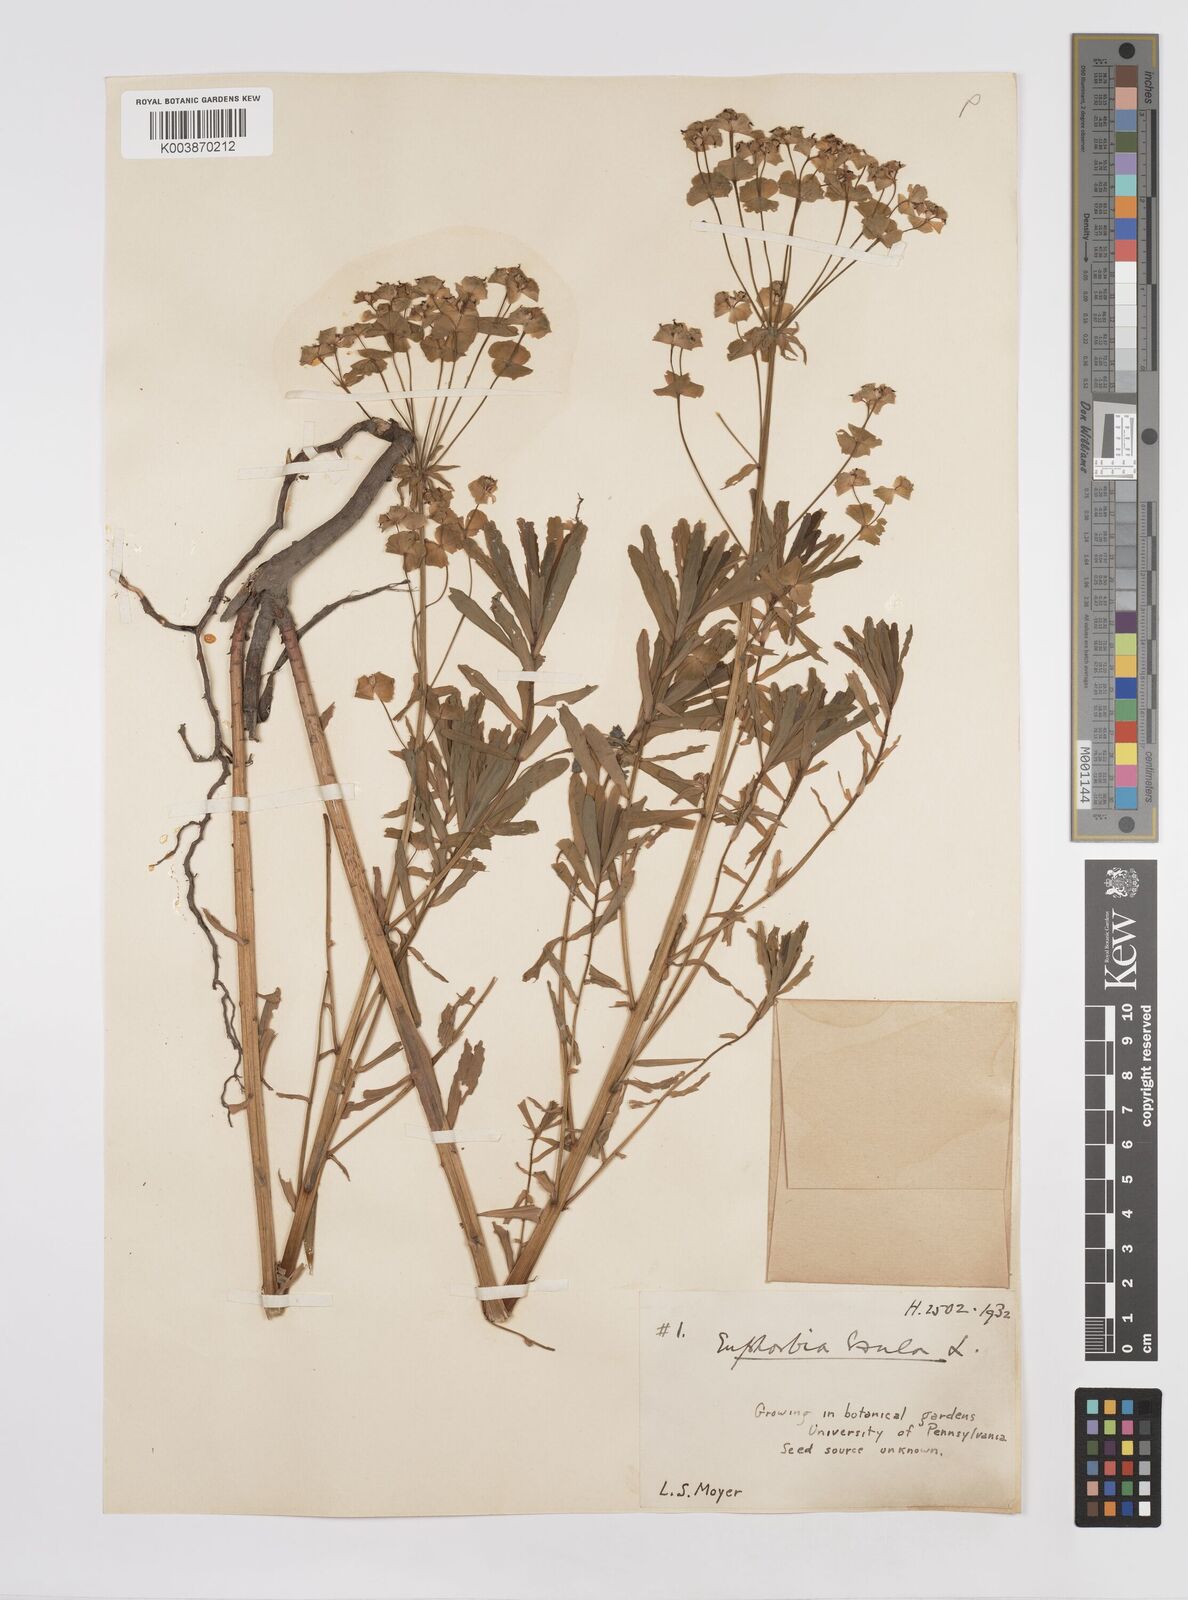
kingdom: Plantae
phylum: Tracheophyta
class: Magnoliopsida
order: Malpighiales
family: Euphorbiaceae
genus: Euphorbia
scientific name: Euphorbia esula
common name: Leafy spurge
